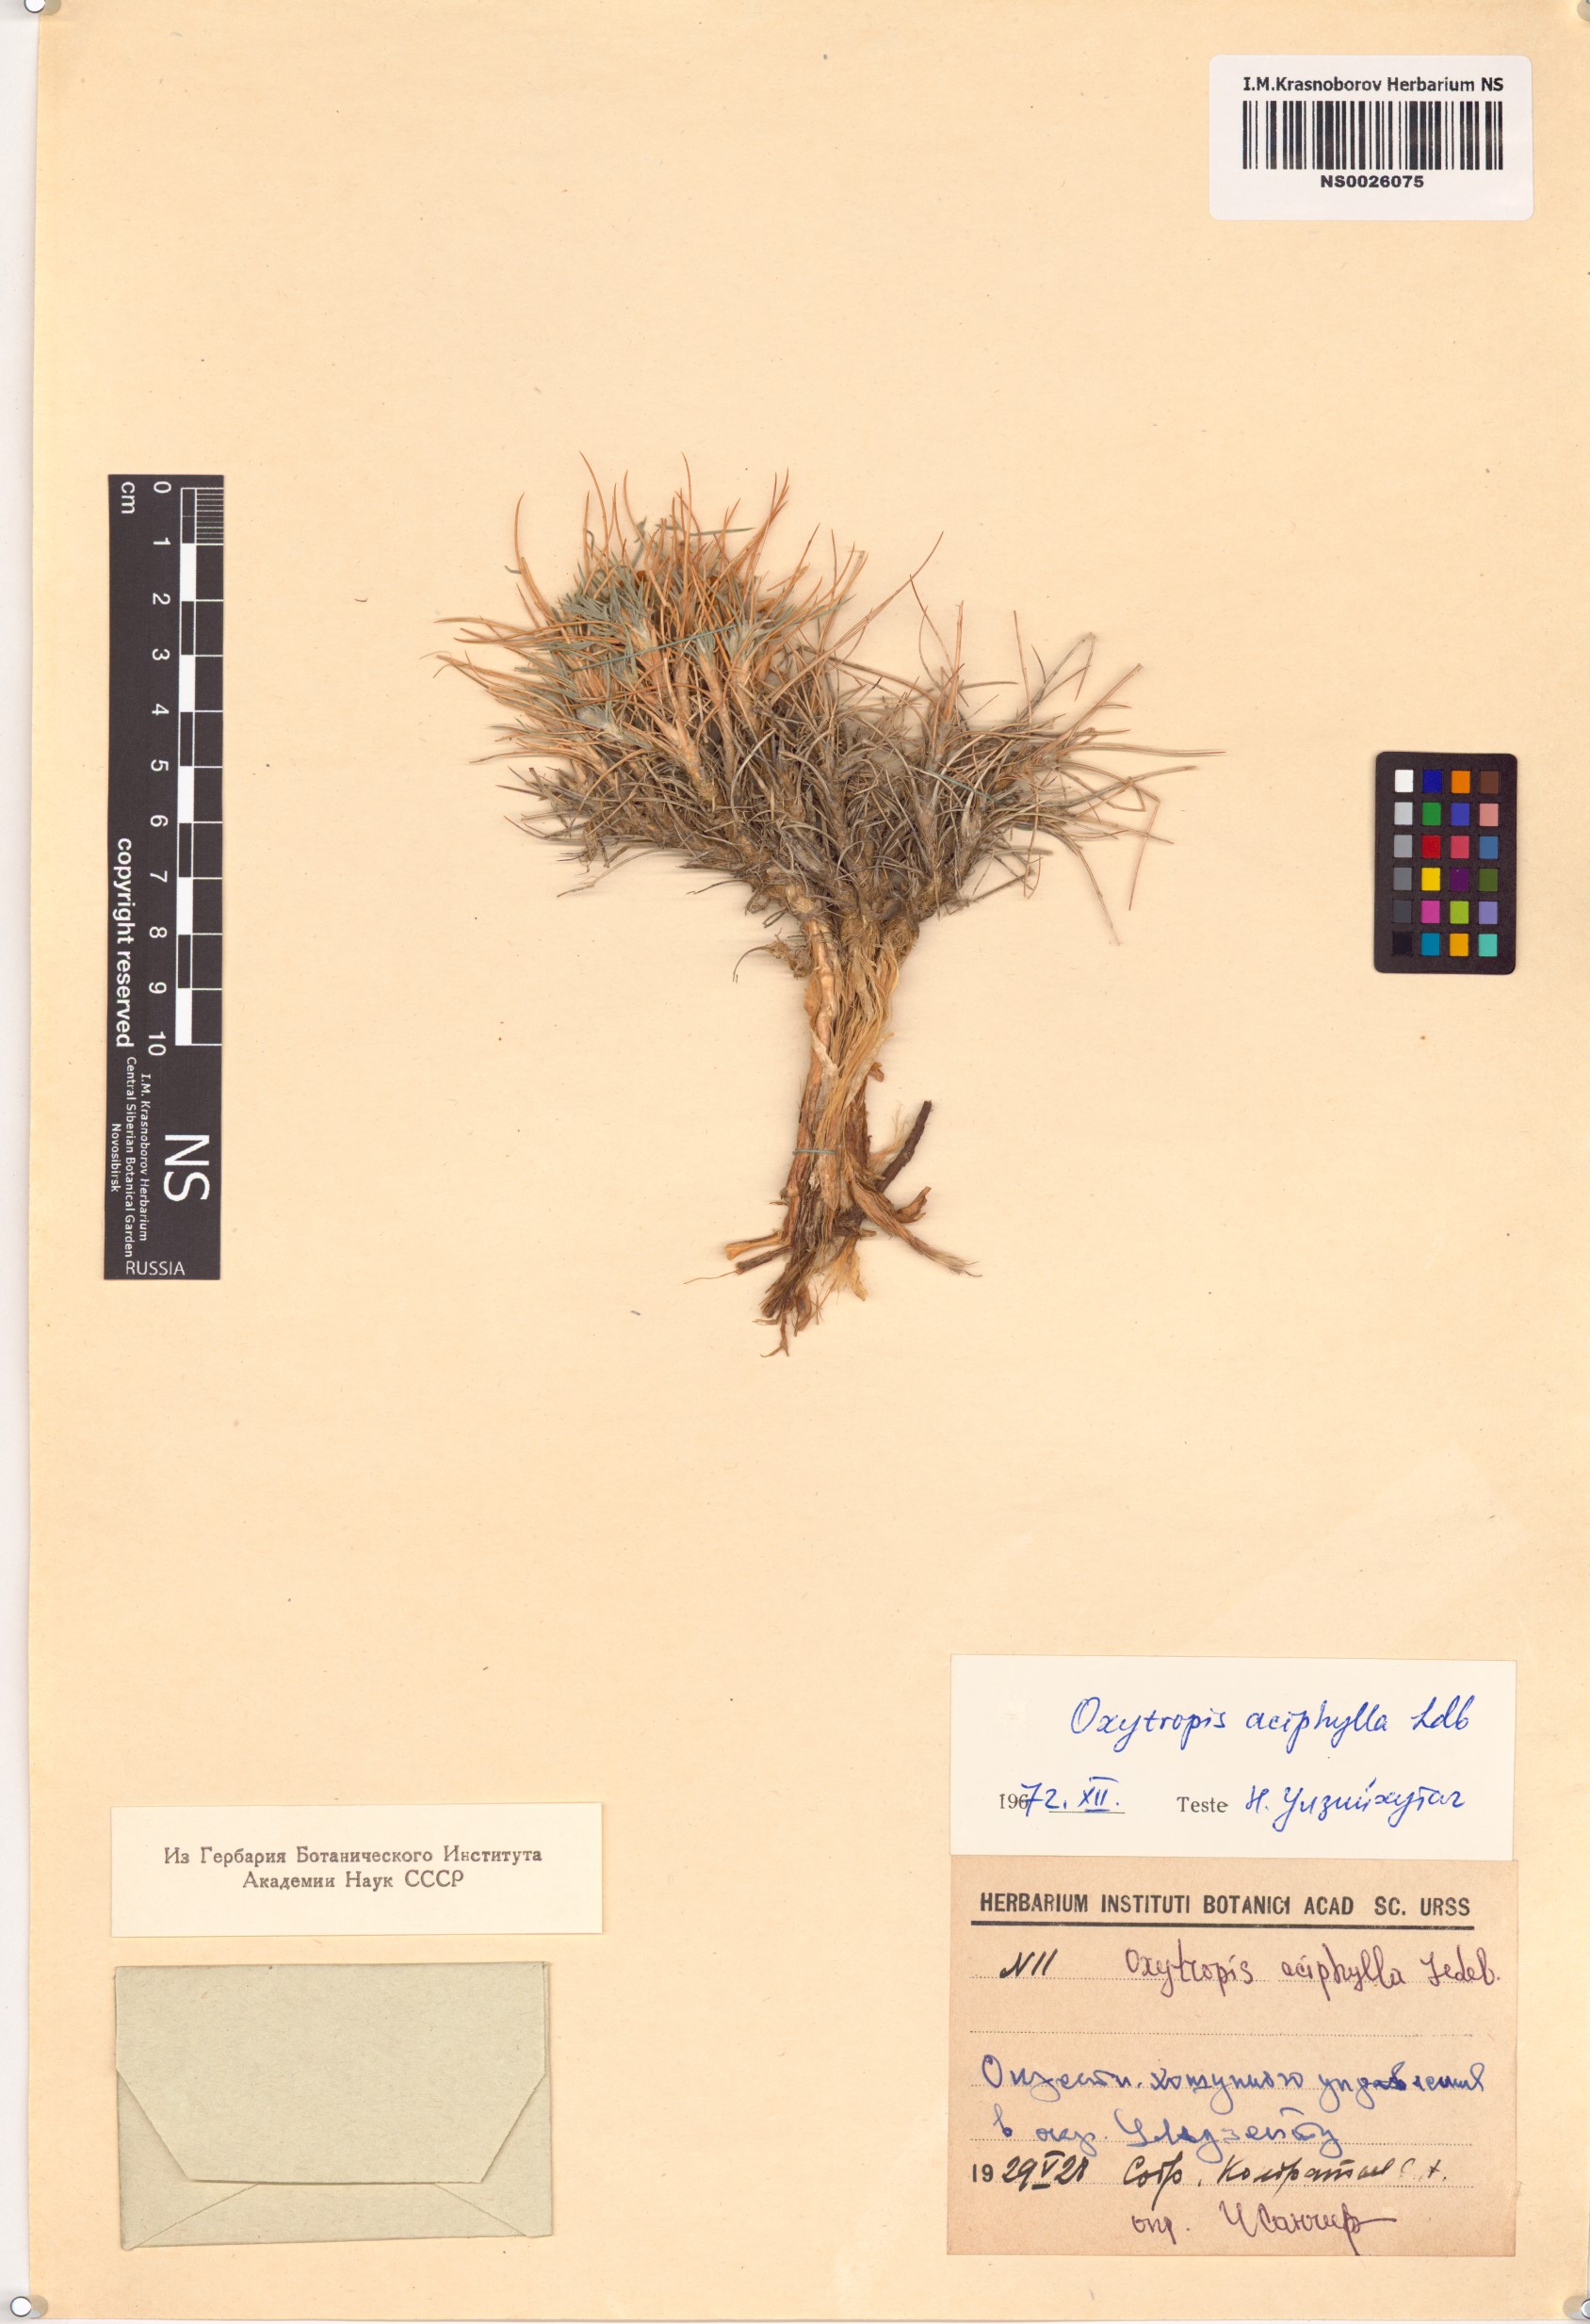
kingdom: Plantae
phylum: Tracheophyta
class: Magnoliopsida
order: Fabales
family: Fabaceae
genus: Oxytropis
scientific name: Oxytropis aciphylla
